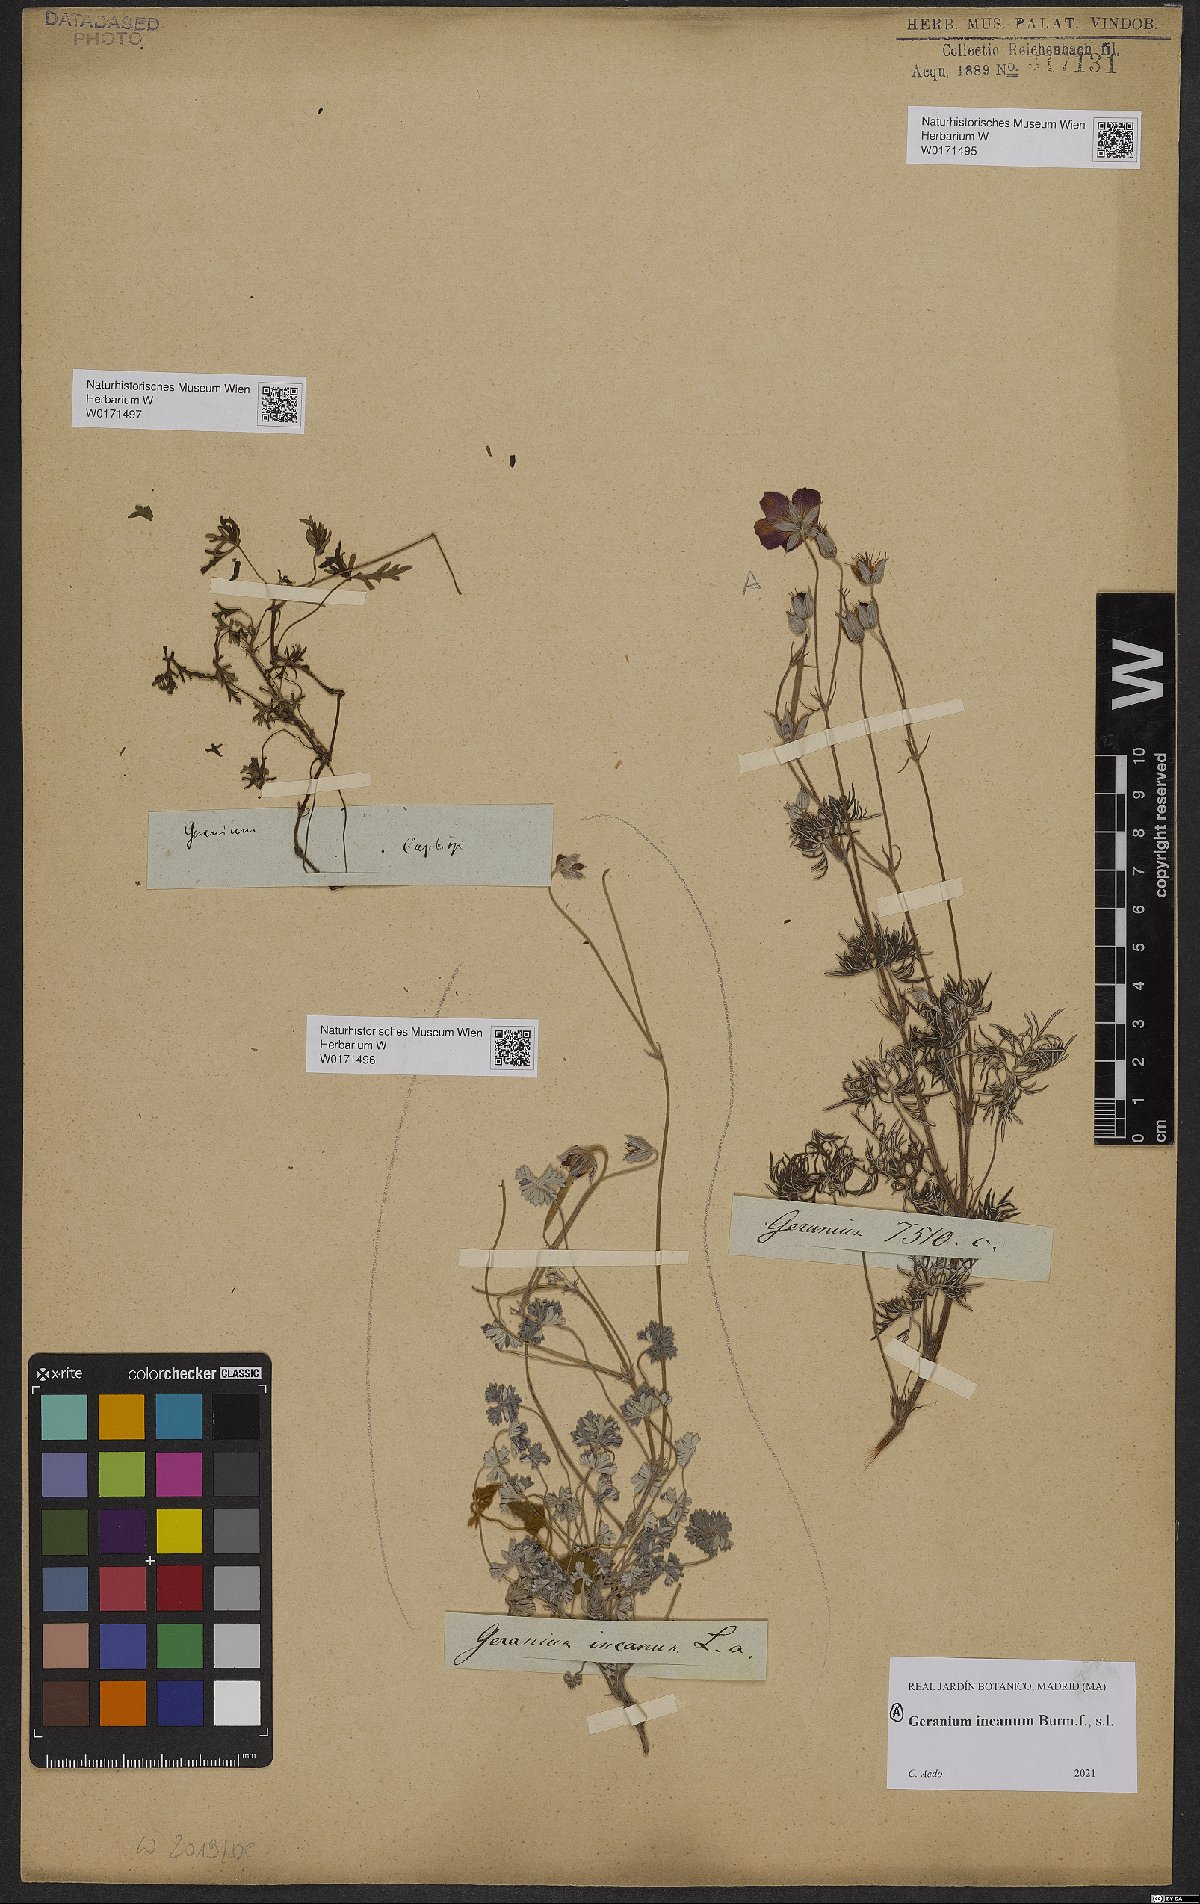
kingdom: Plantae
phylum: Tracheophyta
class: Magnoliopsida
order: Geraniales
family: Geraniaceae
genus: Geranium
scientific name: Geranium incanum
